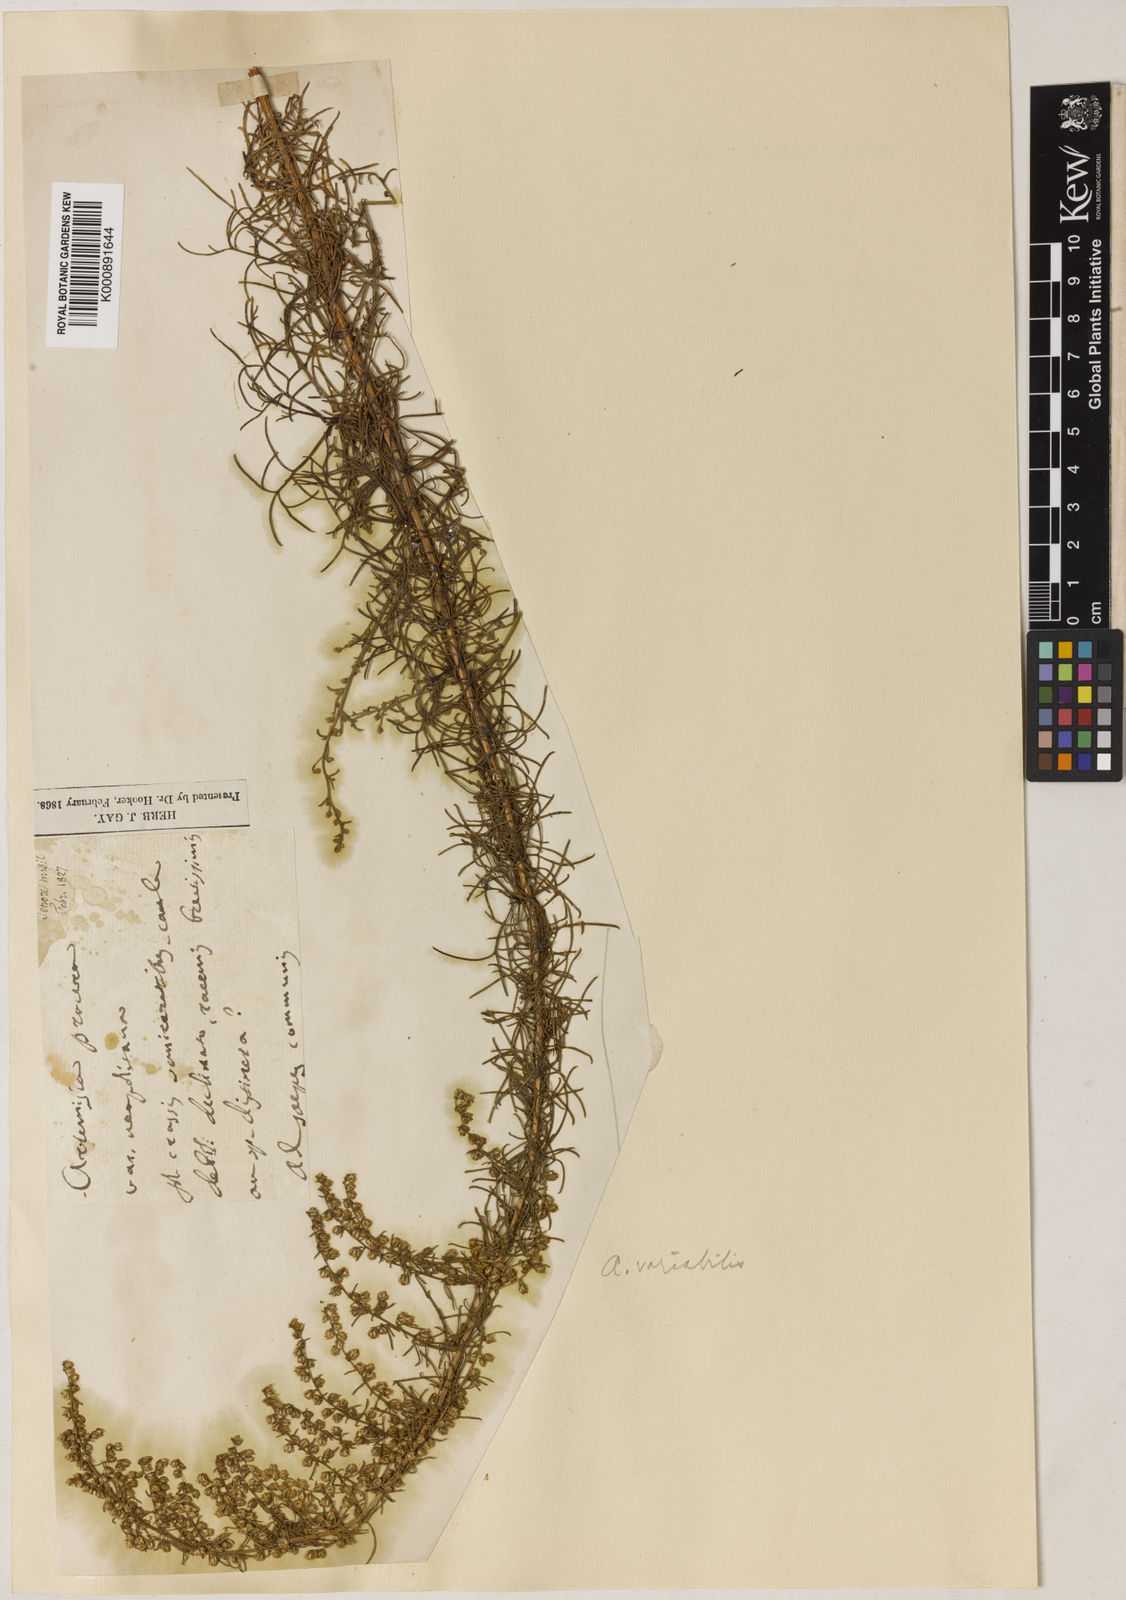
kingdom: Plantae
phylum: Tracheophyta
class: Magnoliopsida
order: Asterales
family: Asteraceae
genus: Artemisia
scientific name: Artemisia campestris
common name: Field wormwood
